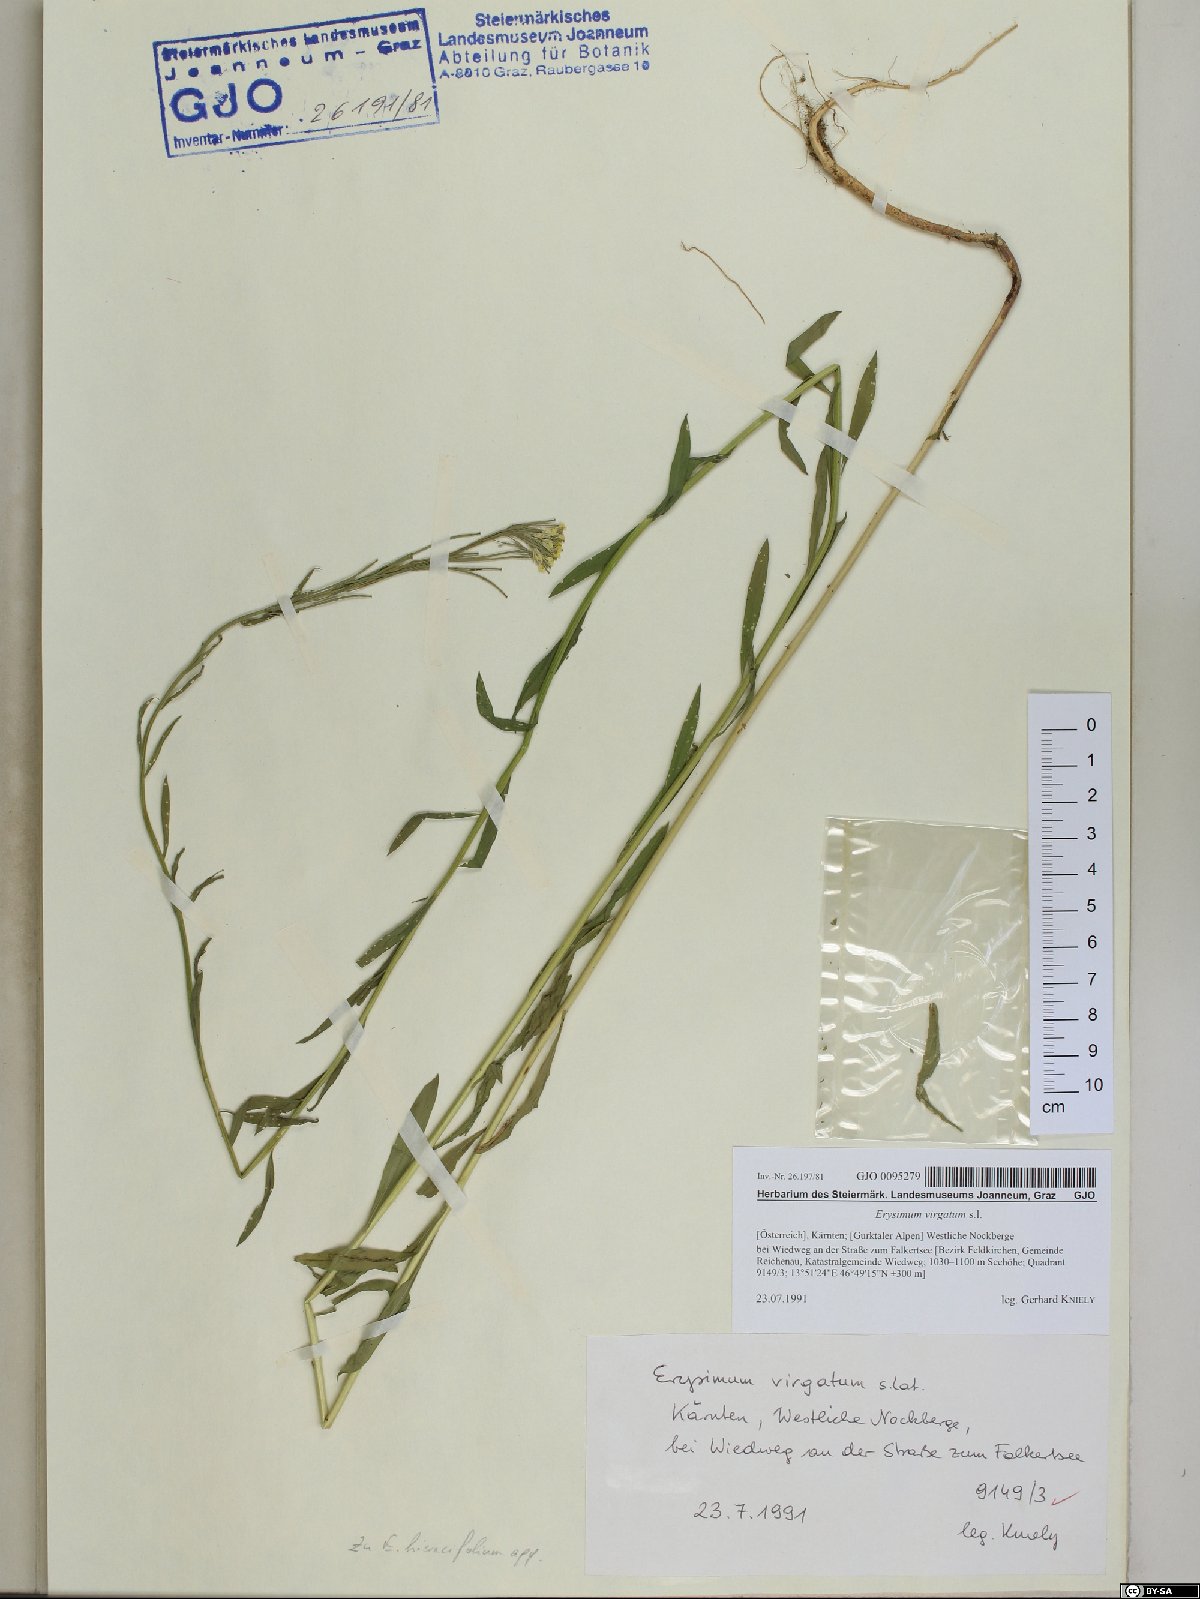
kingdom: Plantae
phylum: Tracheophyta
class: Magnoliopsida
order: Brassicales
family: Brassicaceae
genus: Erysimum
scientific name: Erysimum virgatum
